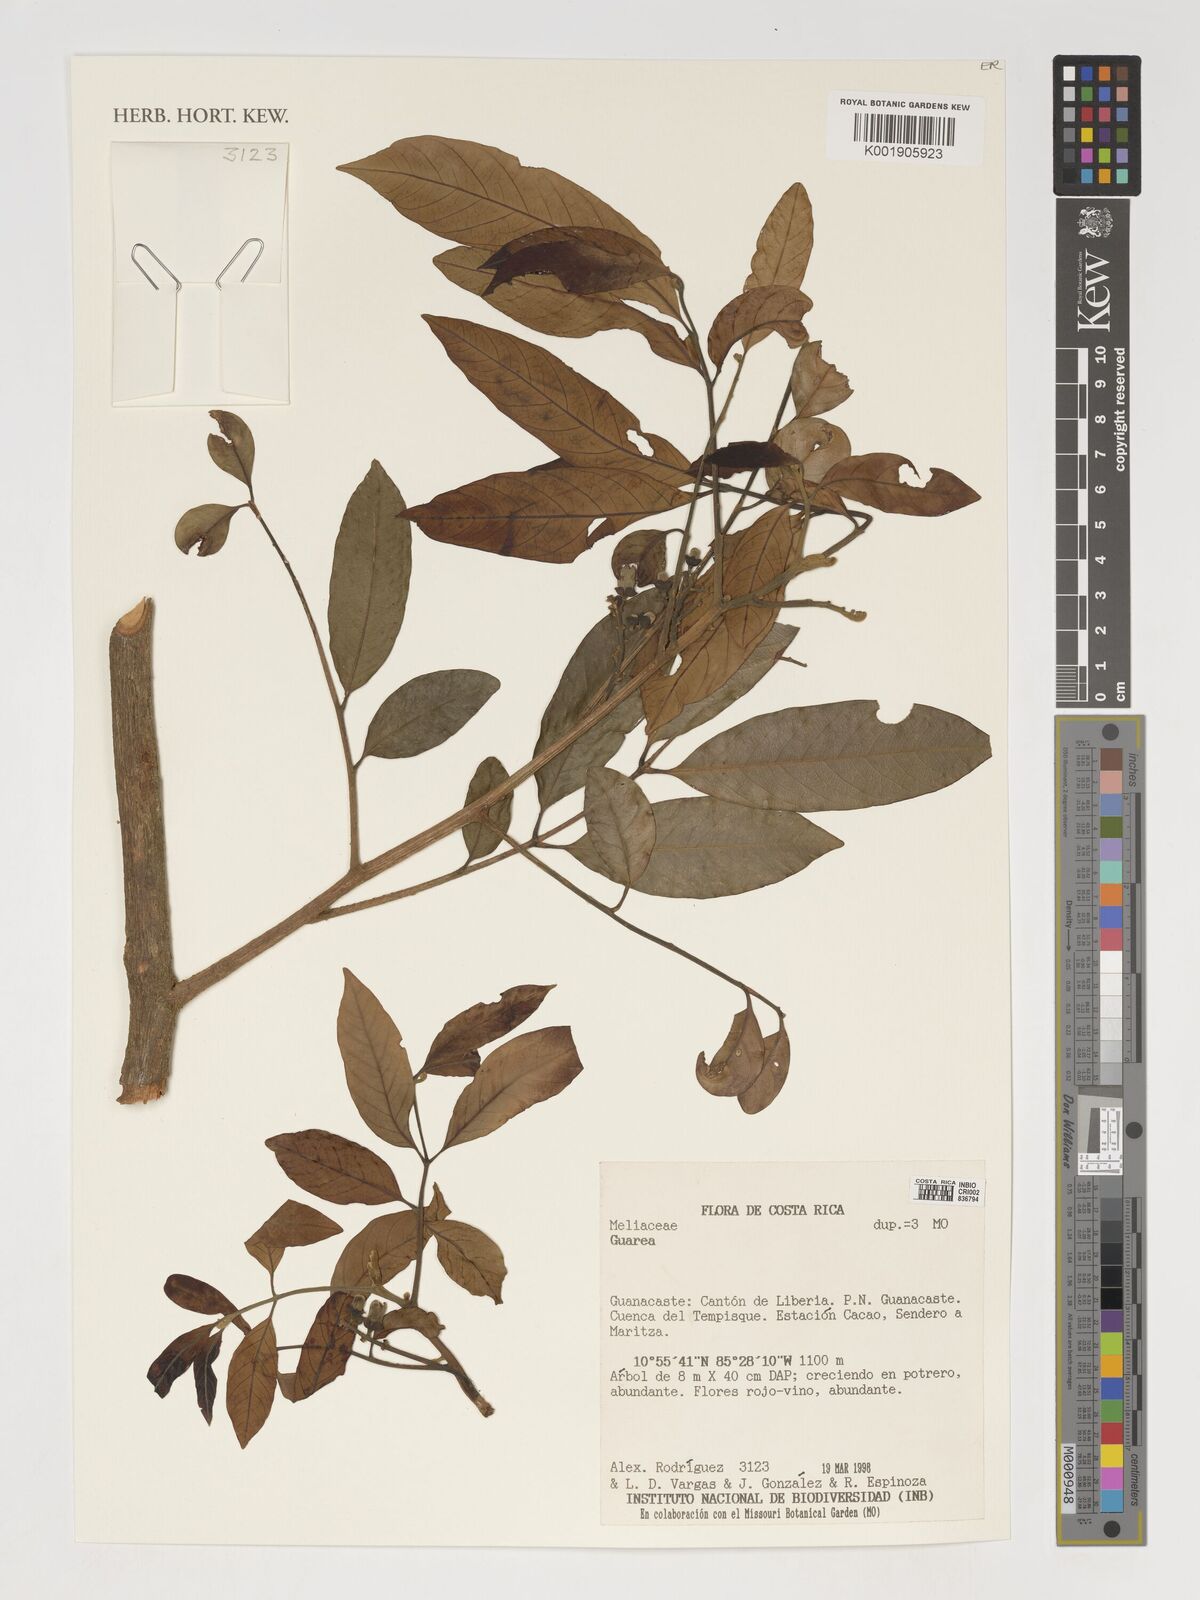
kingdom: Plantae
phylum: Tracheophyta
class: Magnoliopsida
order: Sapindales
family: Meliaceae
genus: Guarea
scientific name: Guarea
